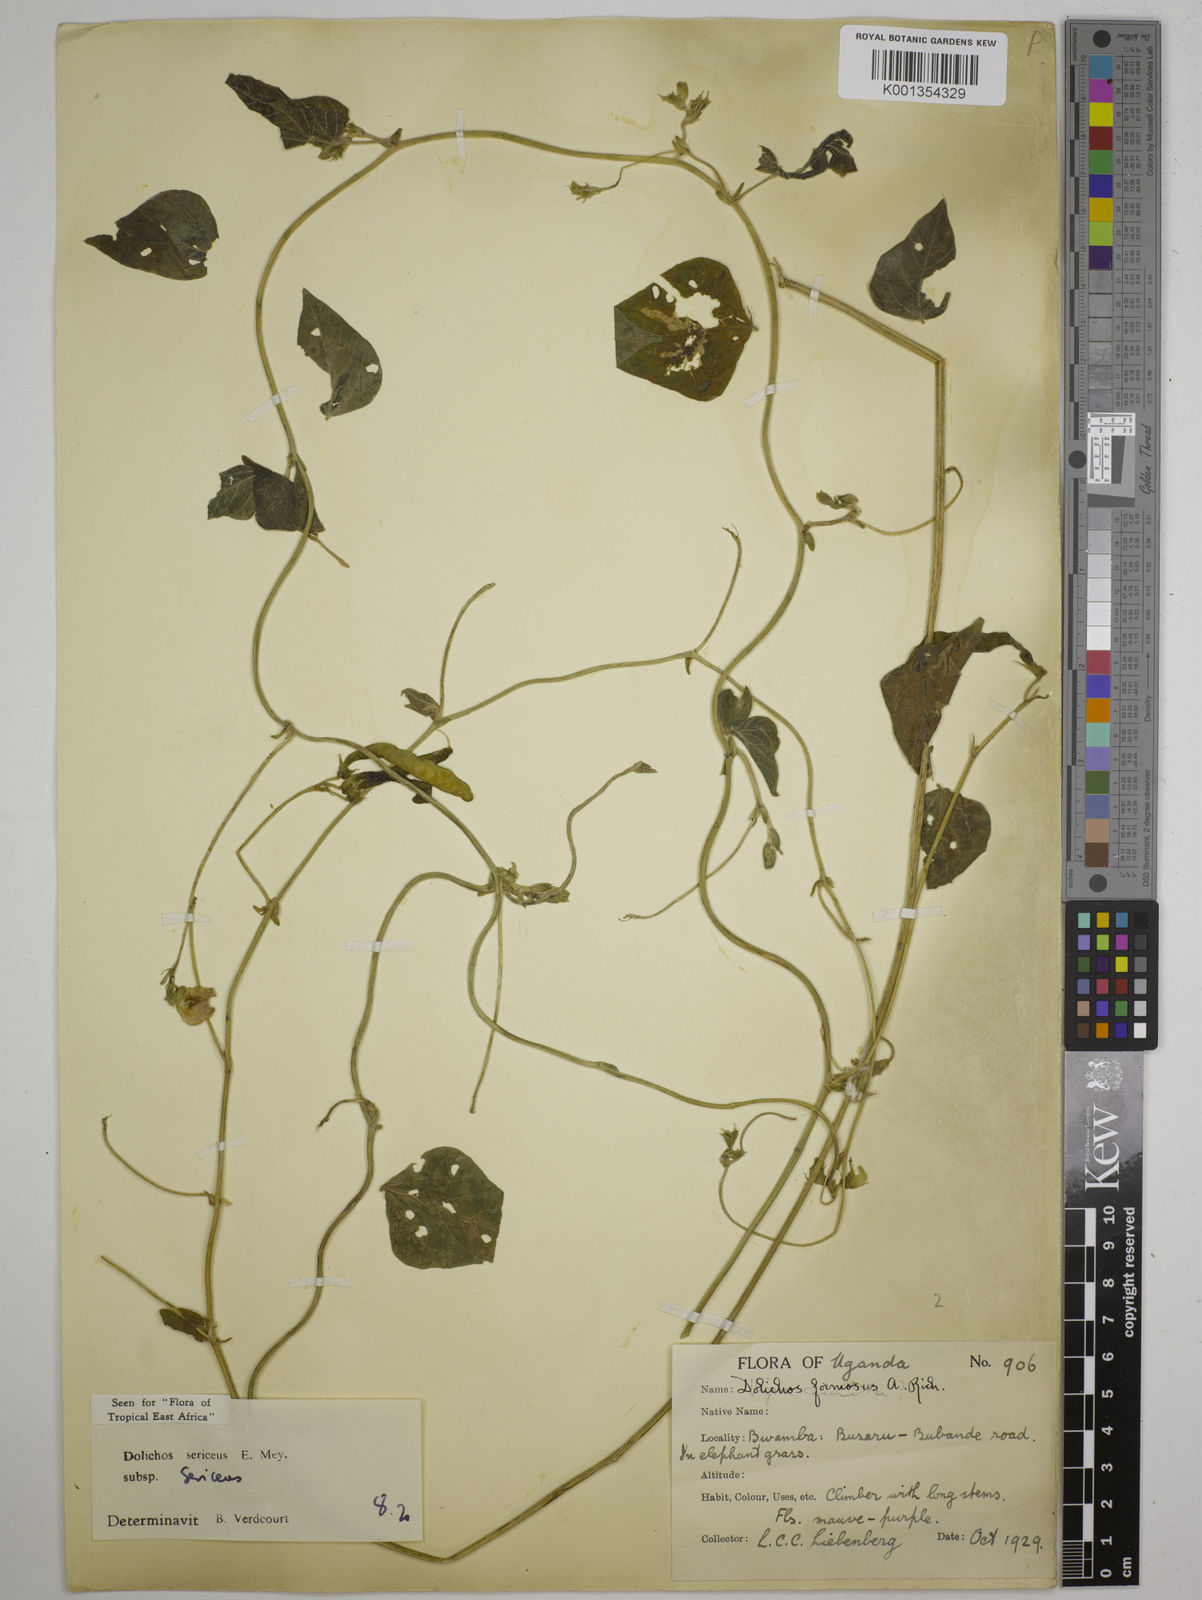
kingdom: Plantae
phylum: Tracheophyta
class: Magnoliopsida
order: Fabales
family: Fabaceae
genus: Dolichos
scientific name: Dolichos sericeus
